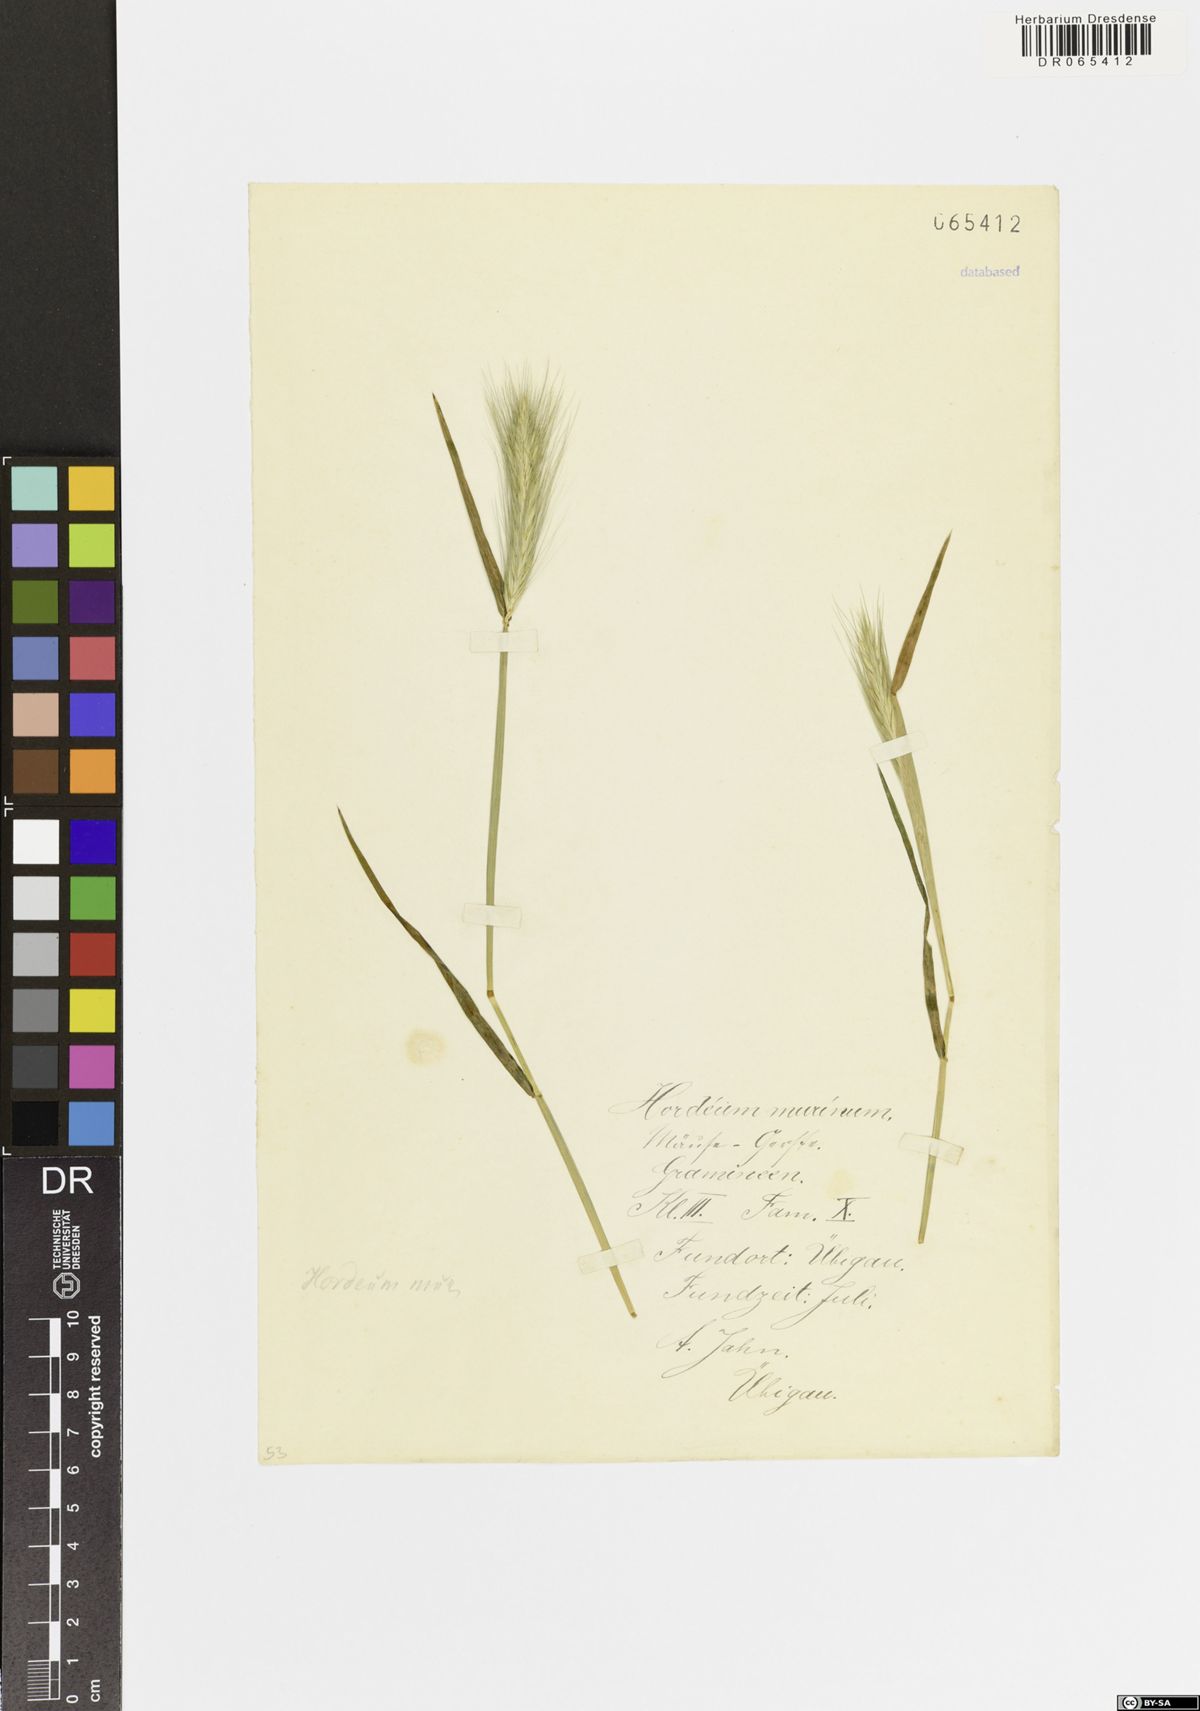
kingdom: Plantae
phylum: Tracheophyta
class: Liliopsida
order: Poales
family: Poaceae
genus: Hordeum
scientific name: Hordeum murinum
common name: Wall barley
